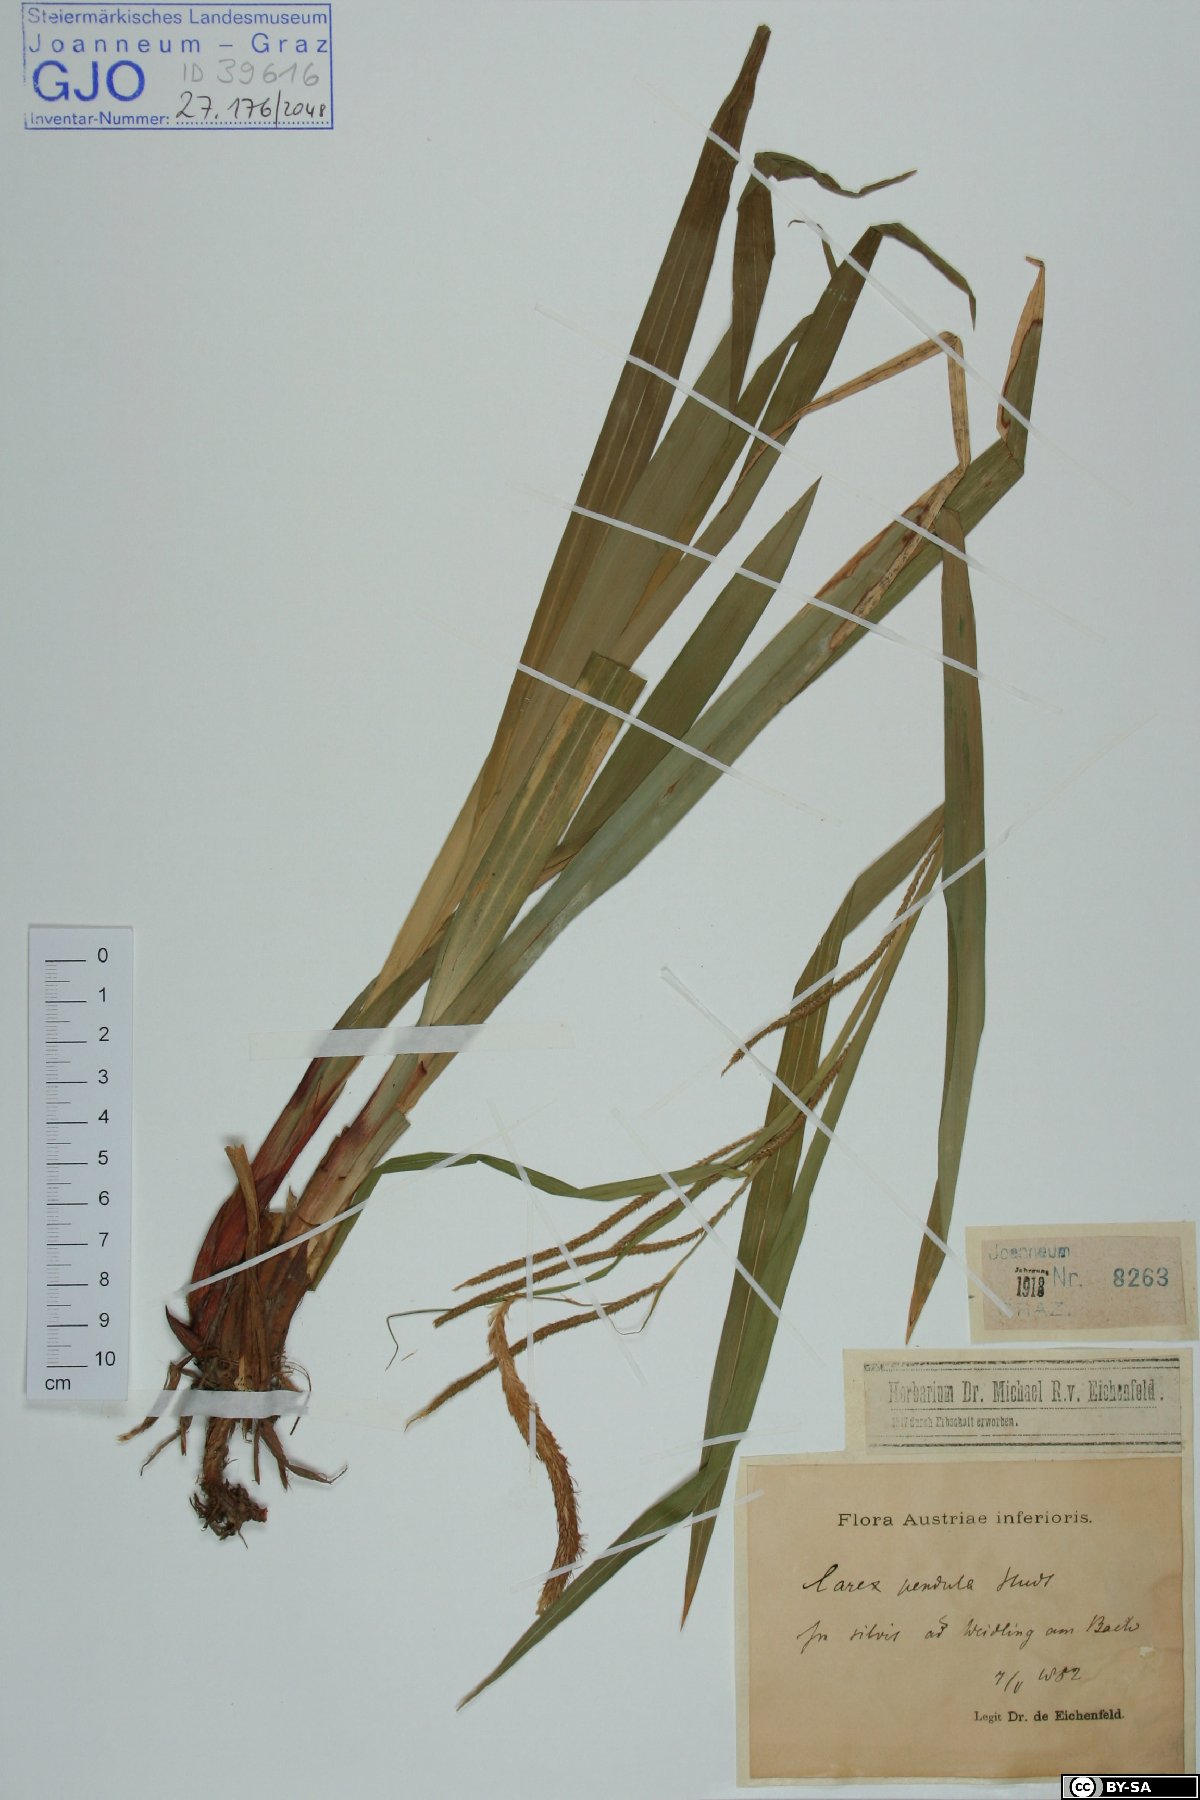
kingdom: Plantae
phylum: Tracheophyta
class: Liliopsida
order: Poales
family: Cyperaceae
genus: Carex
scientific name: Carex pendula
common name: Pendulous sedge
